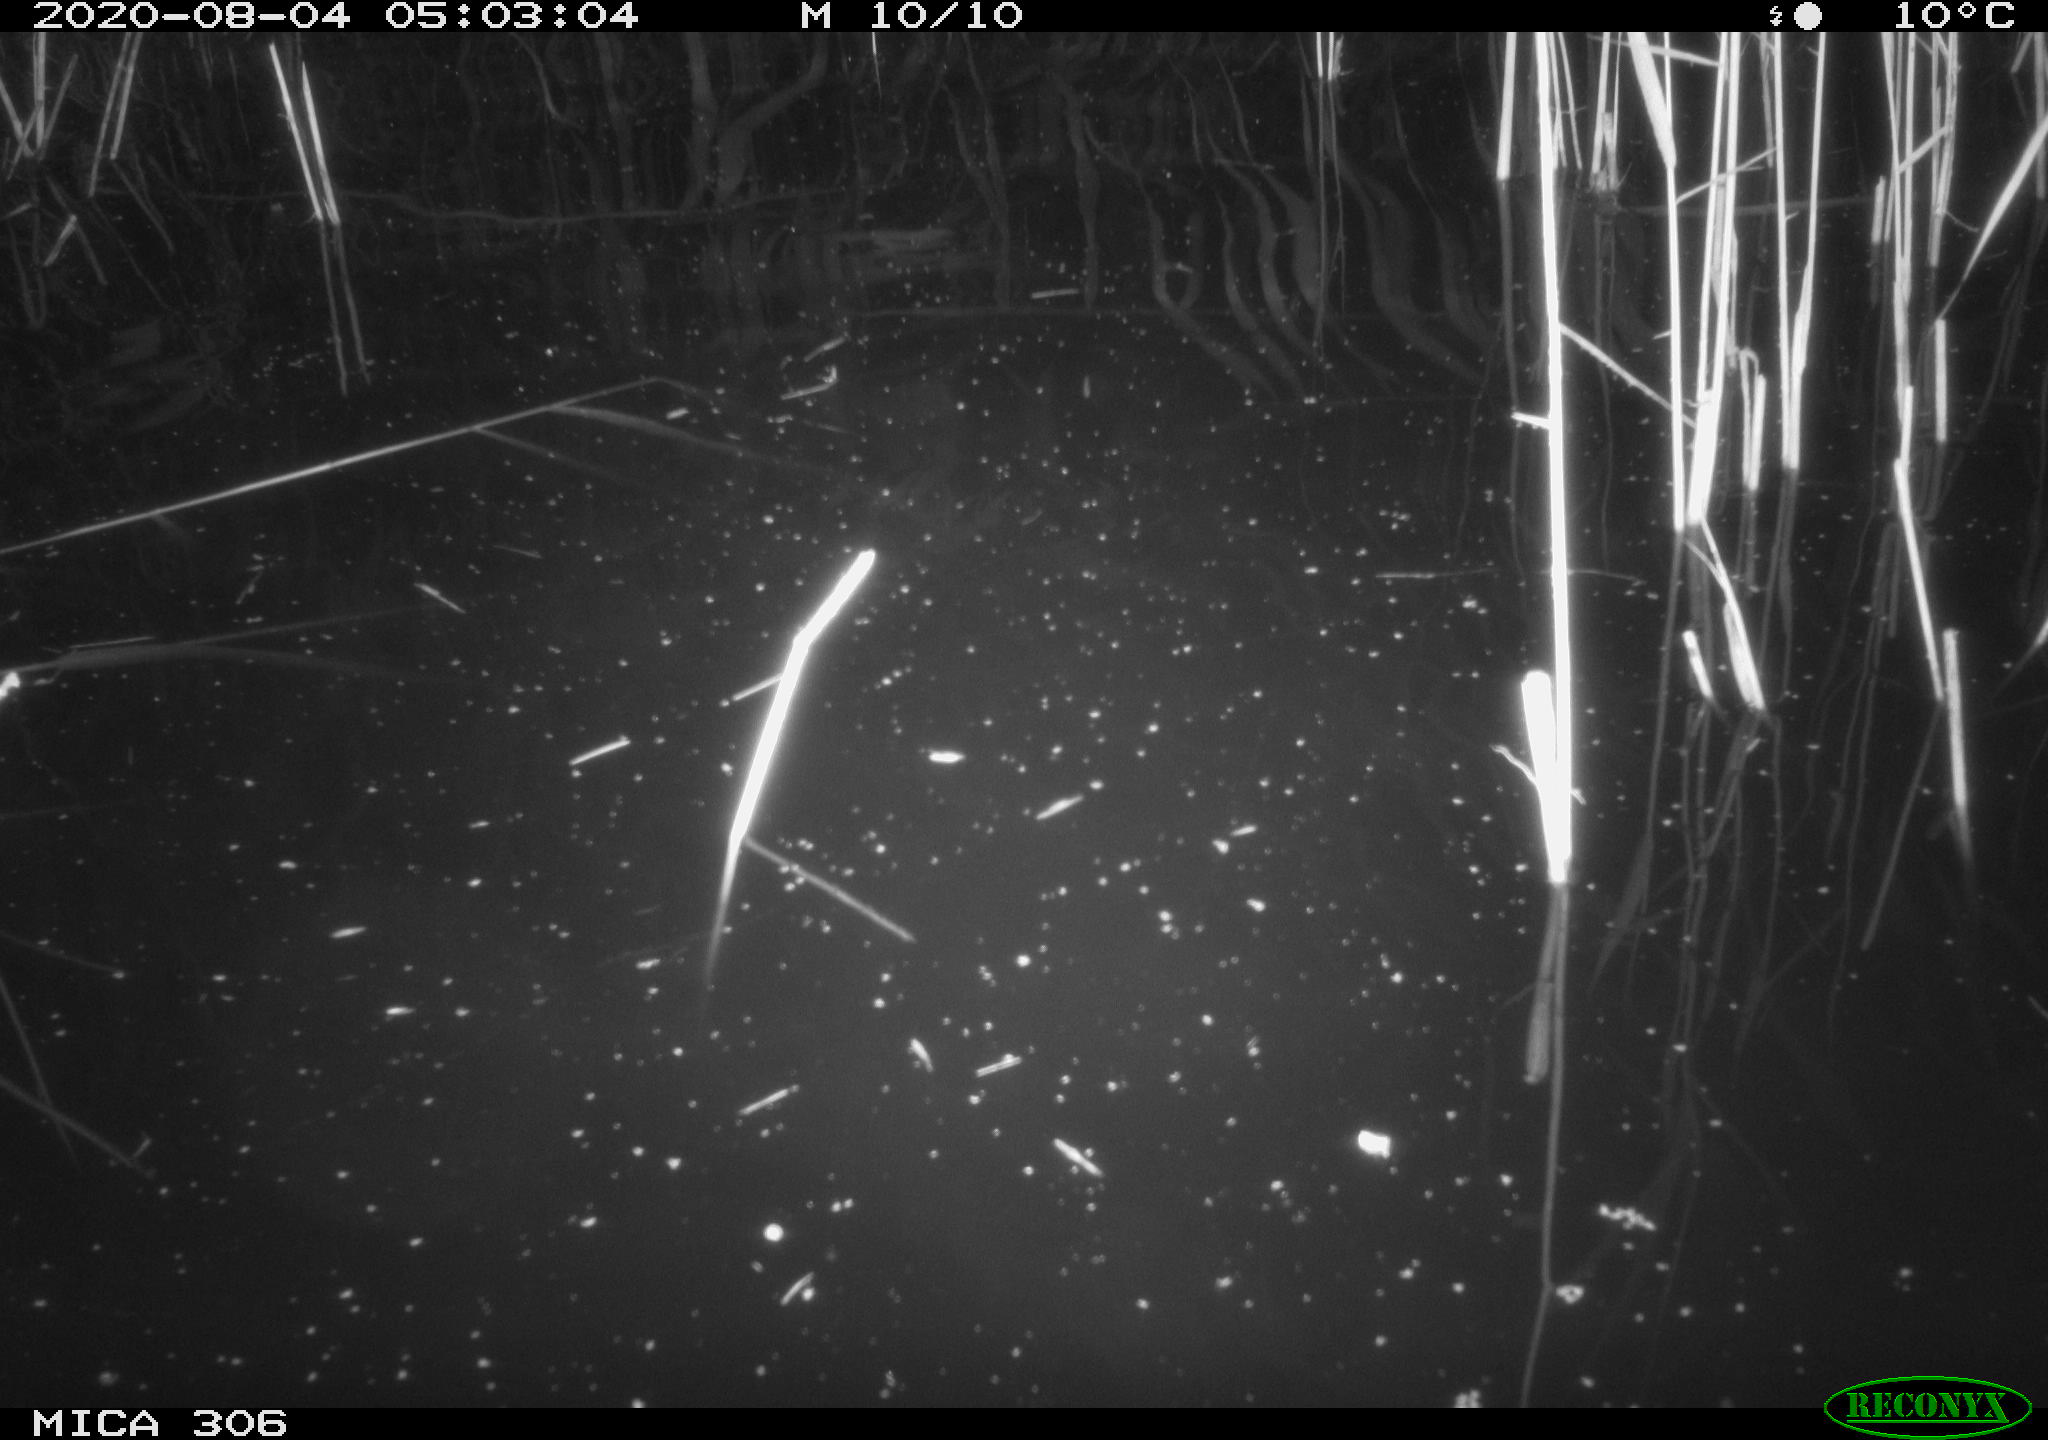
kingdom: Animalia
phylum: Chordata
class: Mammalia
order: Rodentia
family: Cricetidae
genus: Ondatra
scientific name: Ondatra zibethicus
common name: Muskrat
